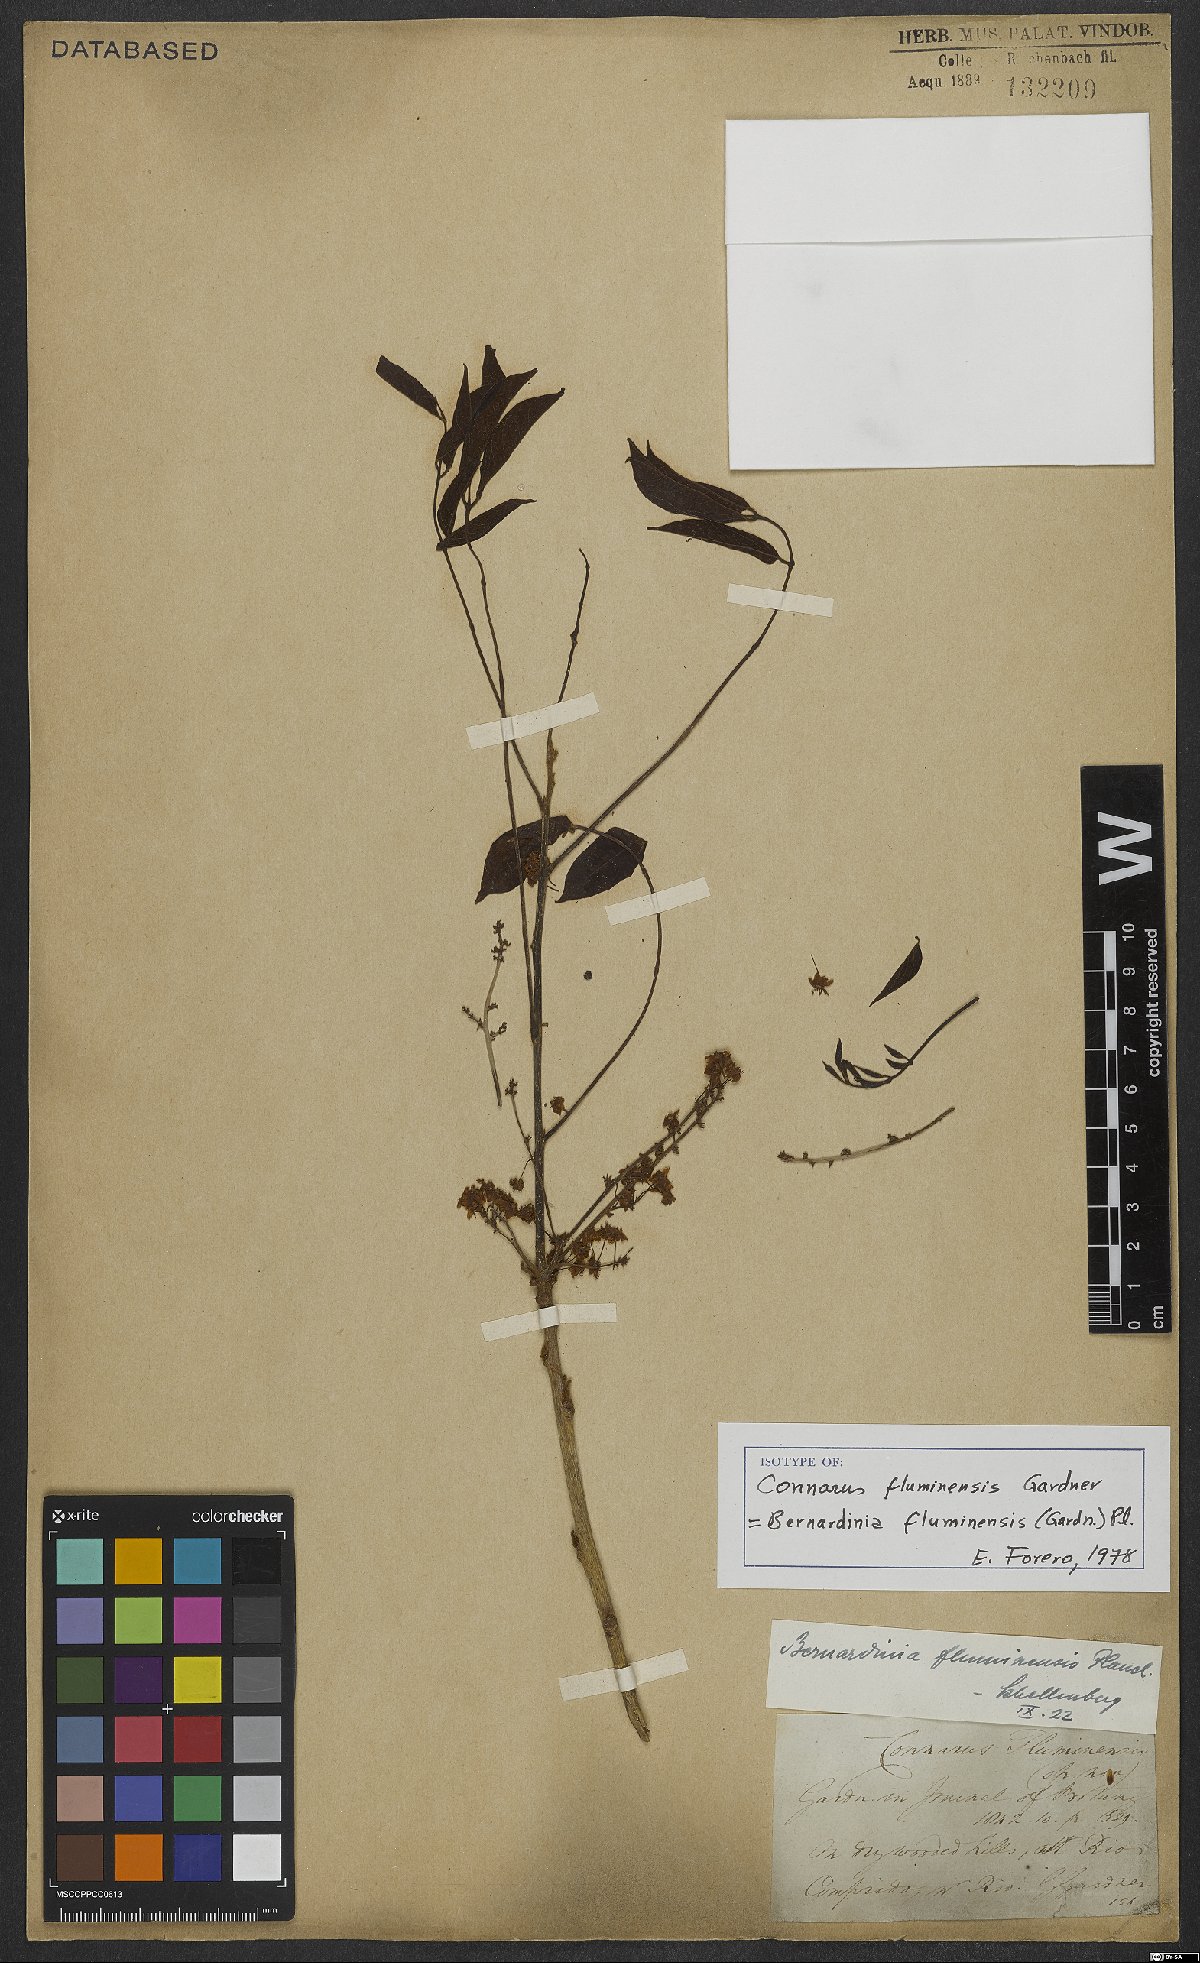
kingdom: Plantae
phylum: Tracheophyta
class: Magnoliopsida
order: Oxalidales
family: Connaraceae
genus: Rourea
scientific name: Rourea fluminensis
